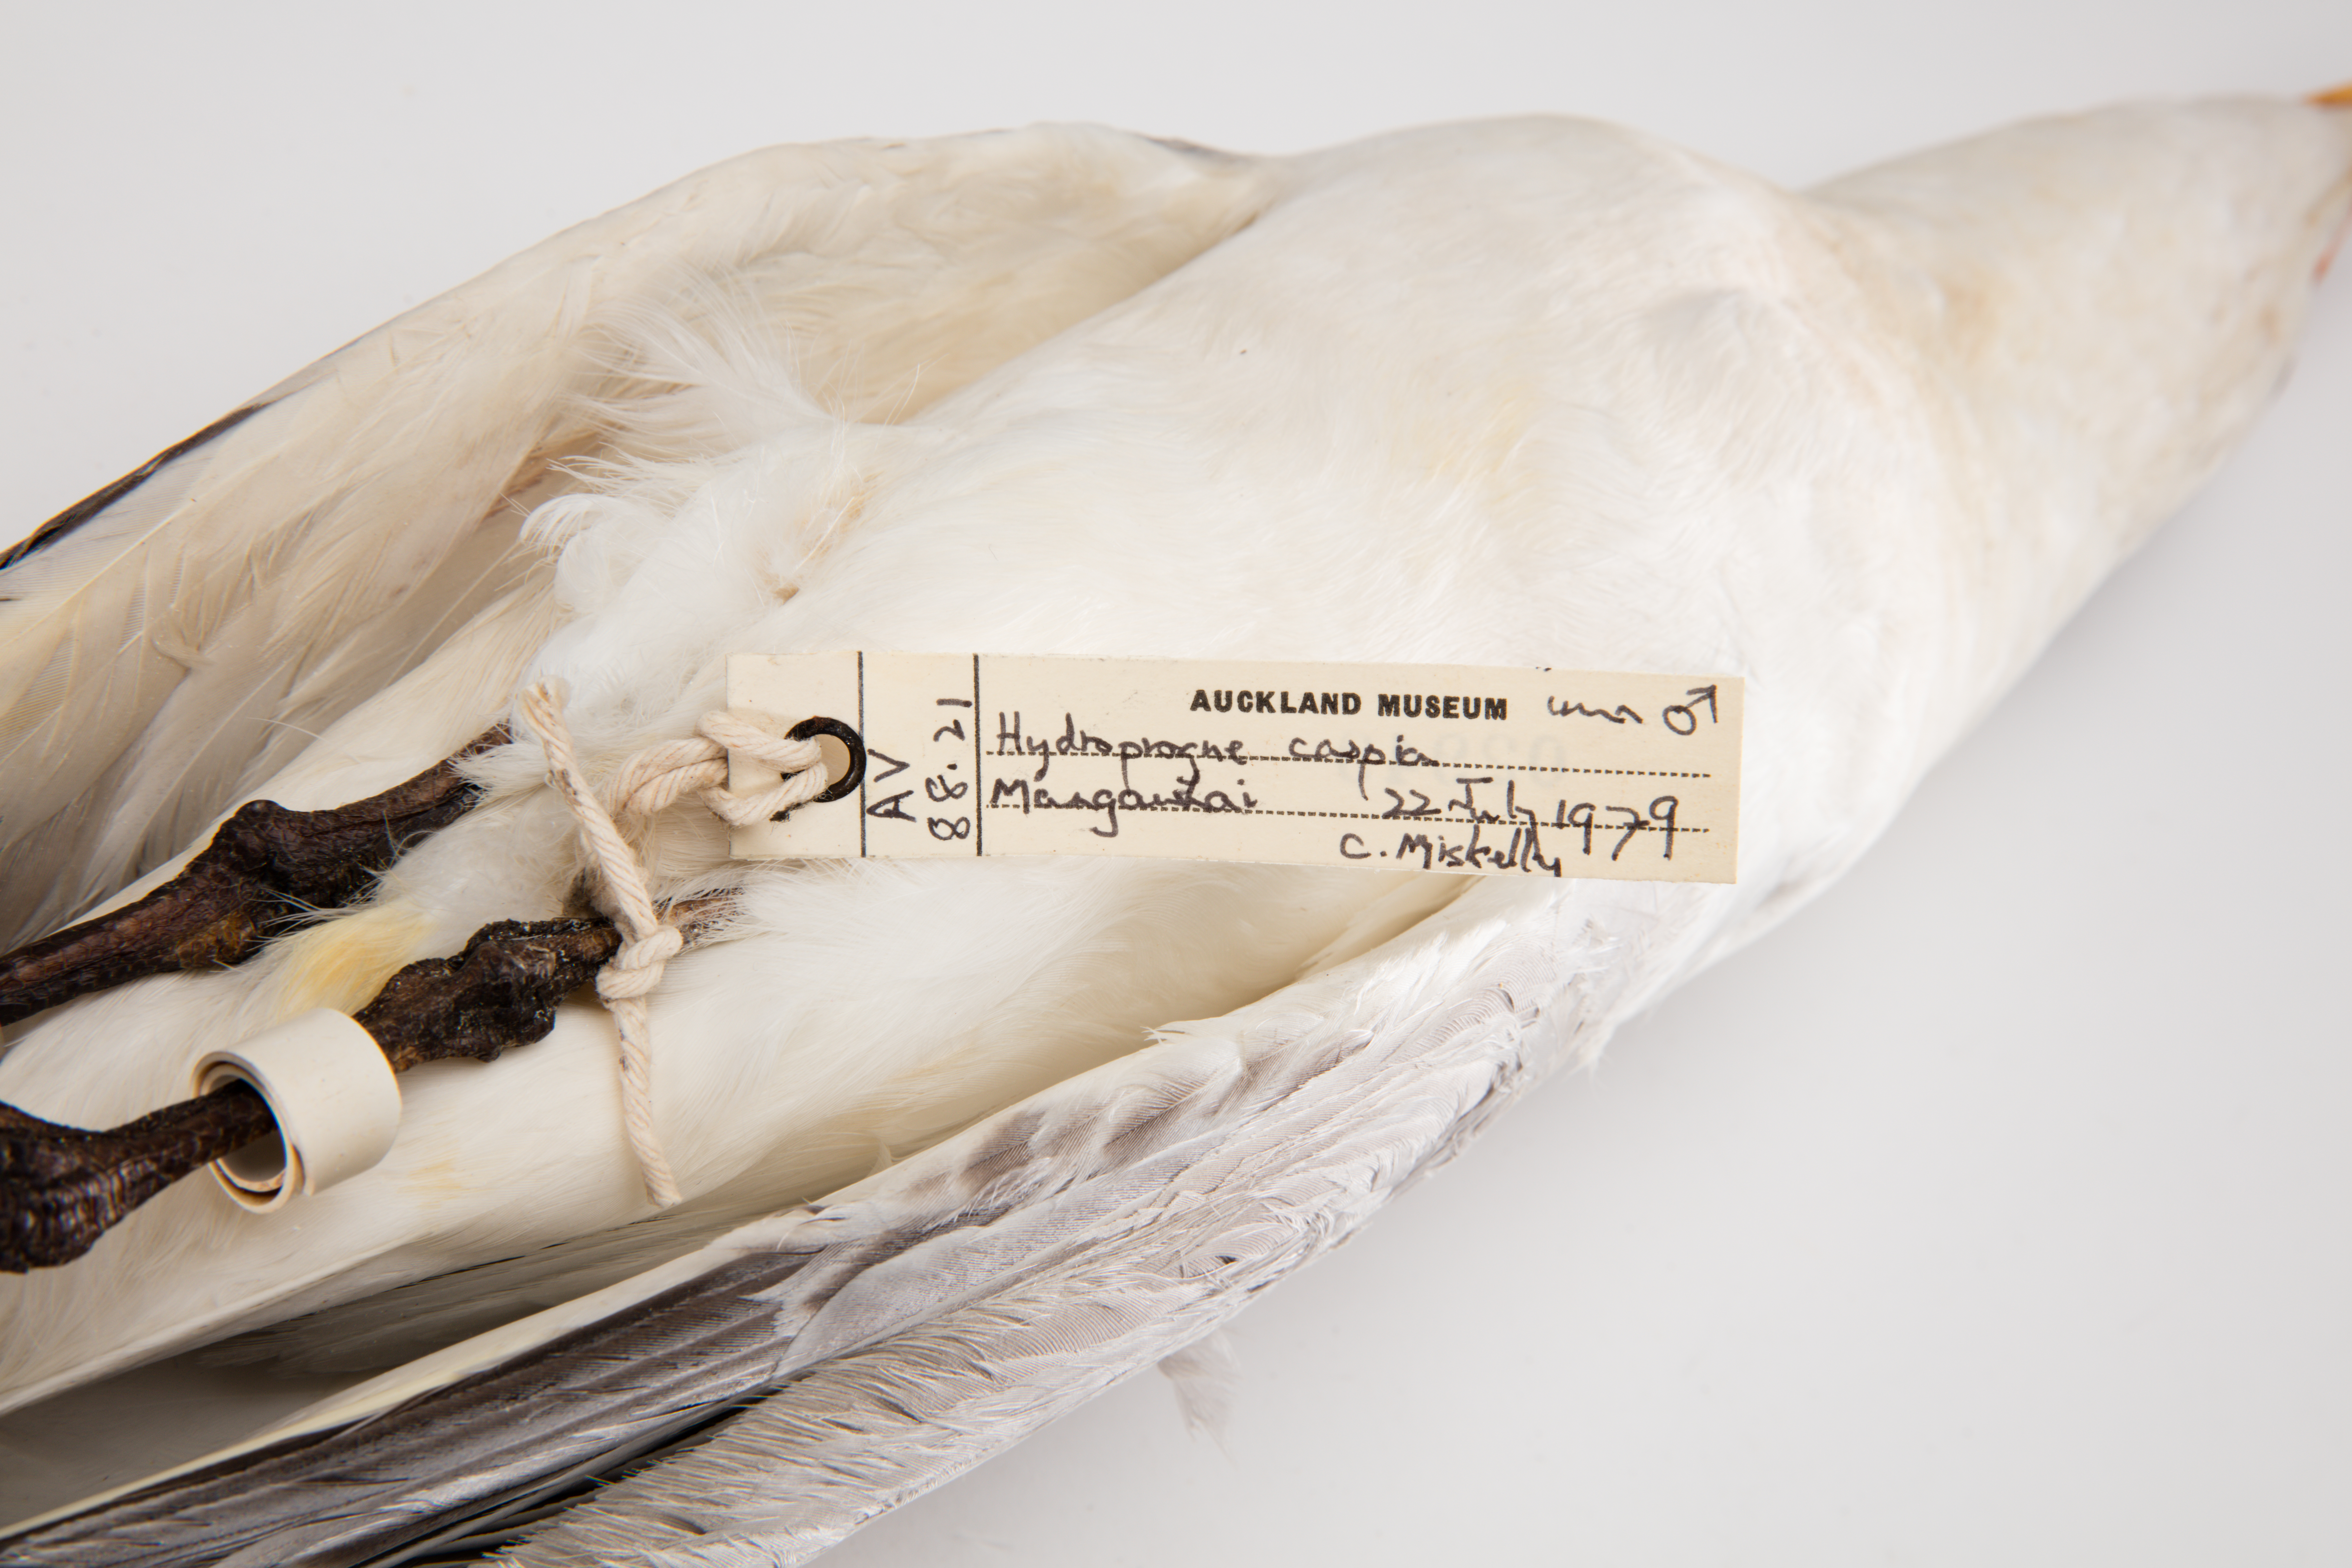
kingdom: Animalia
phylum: Chordata
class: Aves
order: Charadriiformes
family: Laridae
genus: Hydroprogne
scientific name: Hydroprogne caspia
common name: Caspian tern
